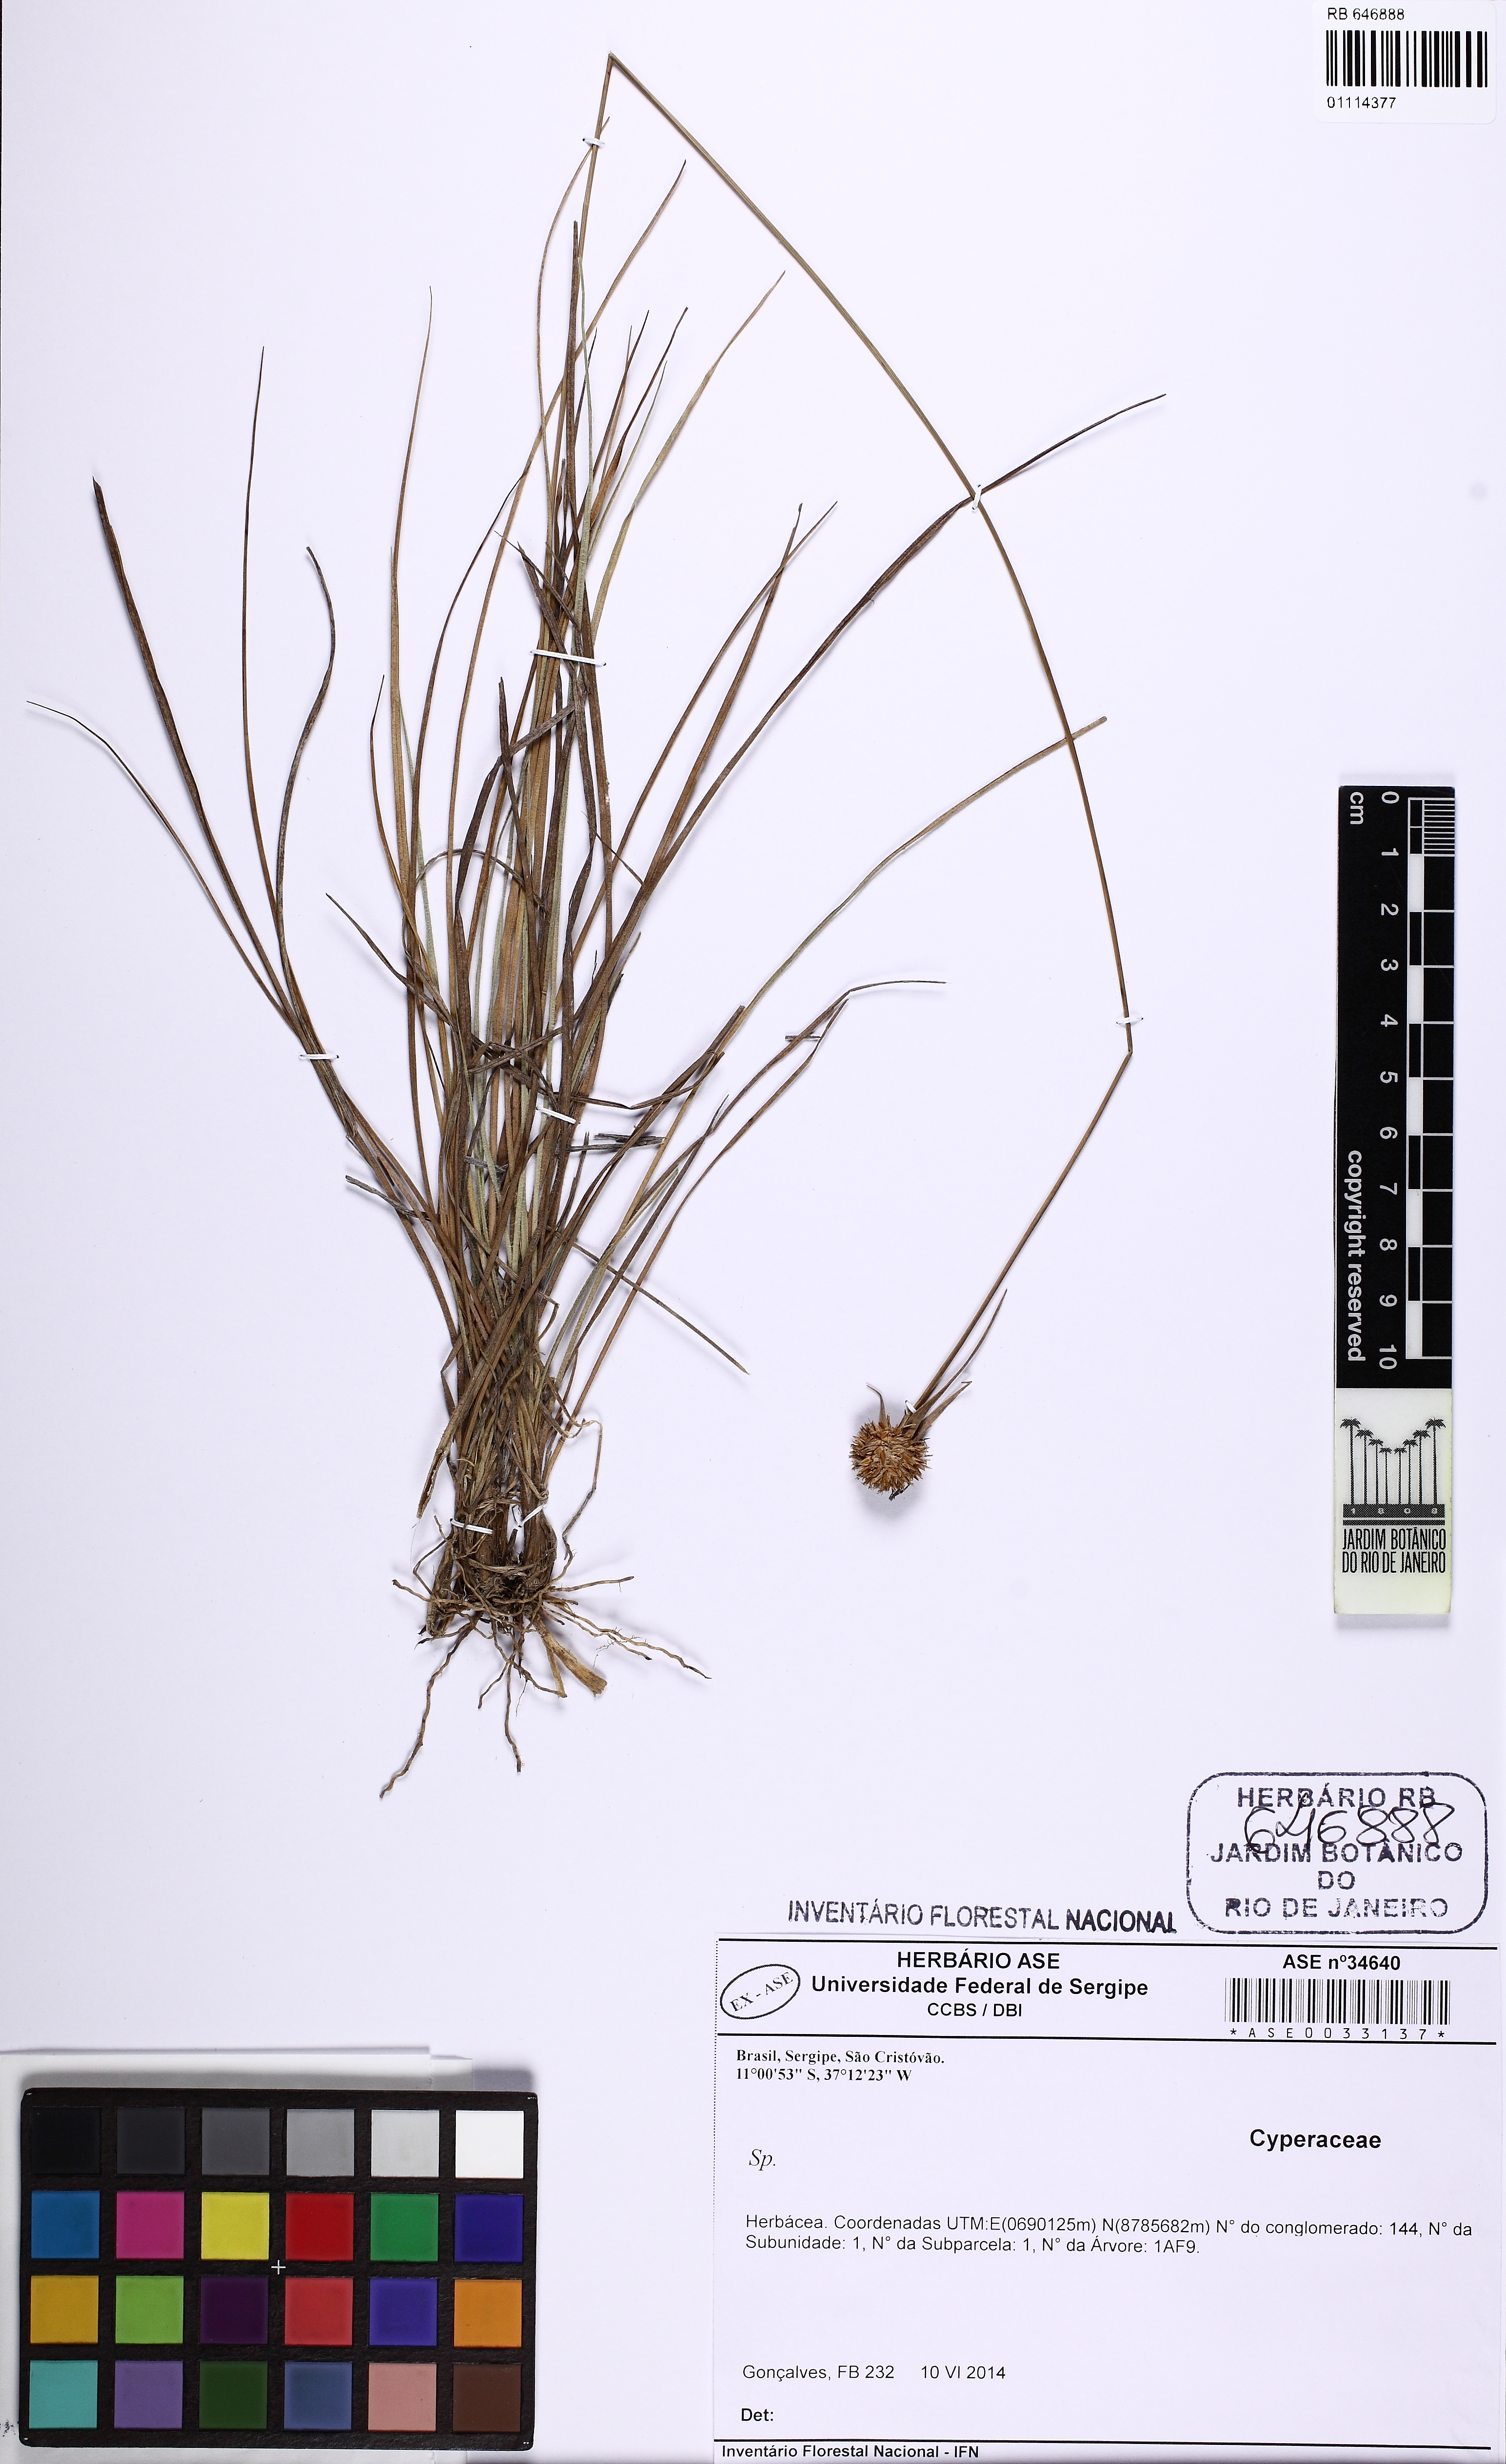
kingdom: Plantae
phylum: Tracheophyta
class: Liliopsida
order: Poales
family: Cyperaceae
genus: Rhynchospora
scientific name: Rhynchospora loefgrenii
